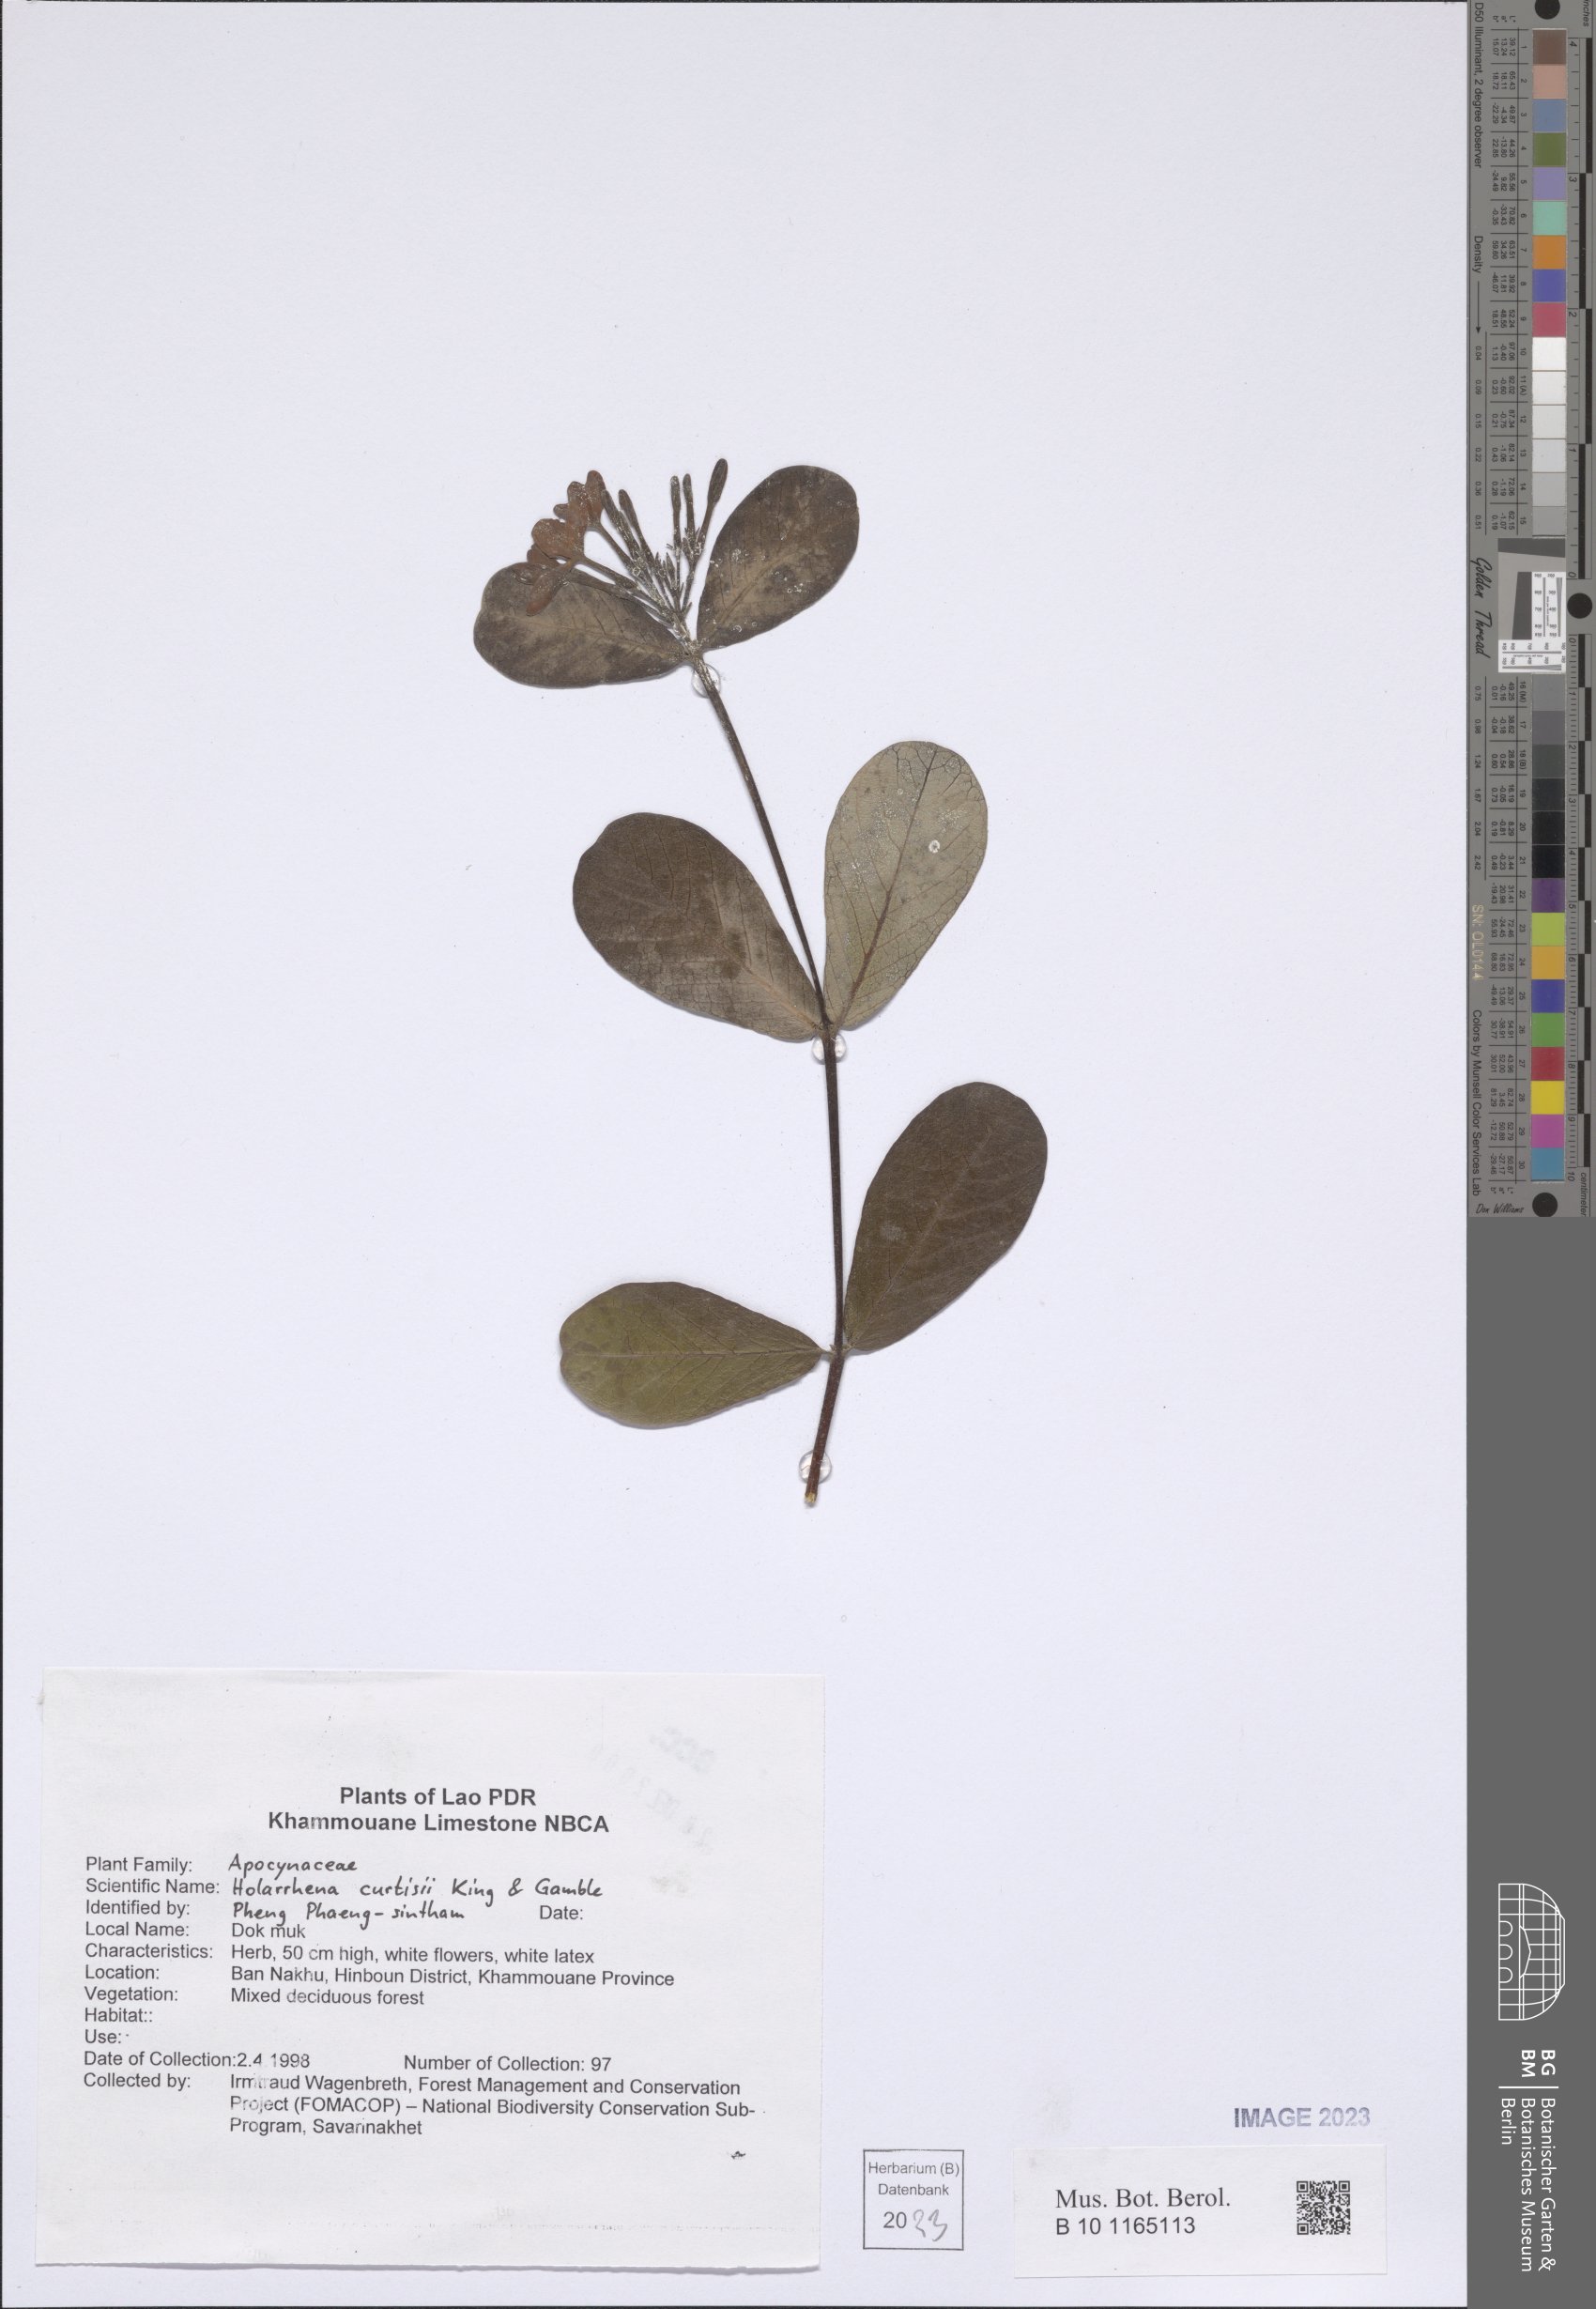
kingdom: Plantae
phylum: Tracheophyta
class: Magnoliopsida
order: Gentianales
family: Apocynaceae
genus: Holarrhena
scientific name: Holarrhena curtisii
